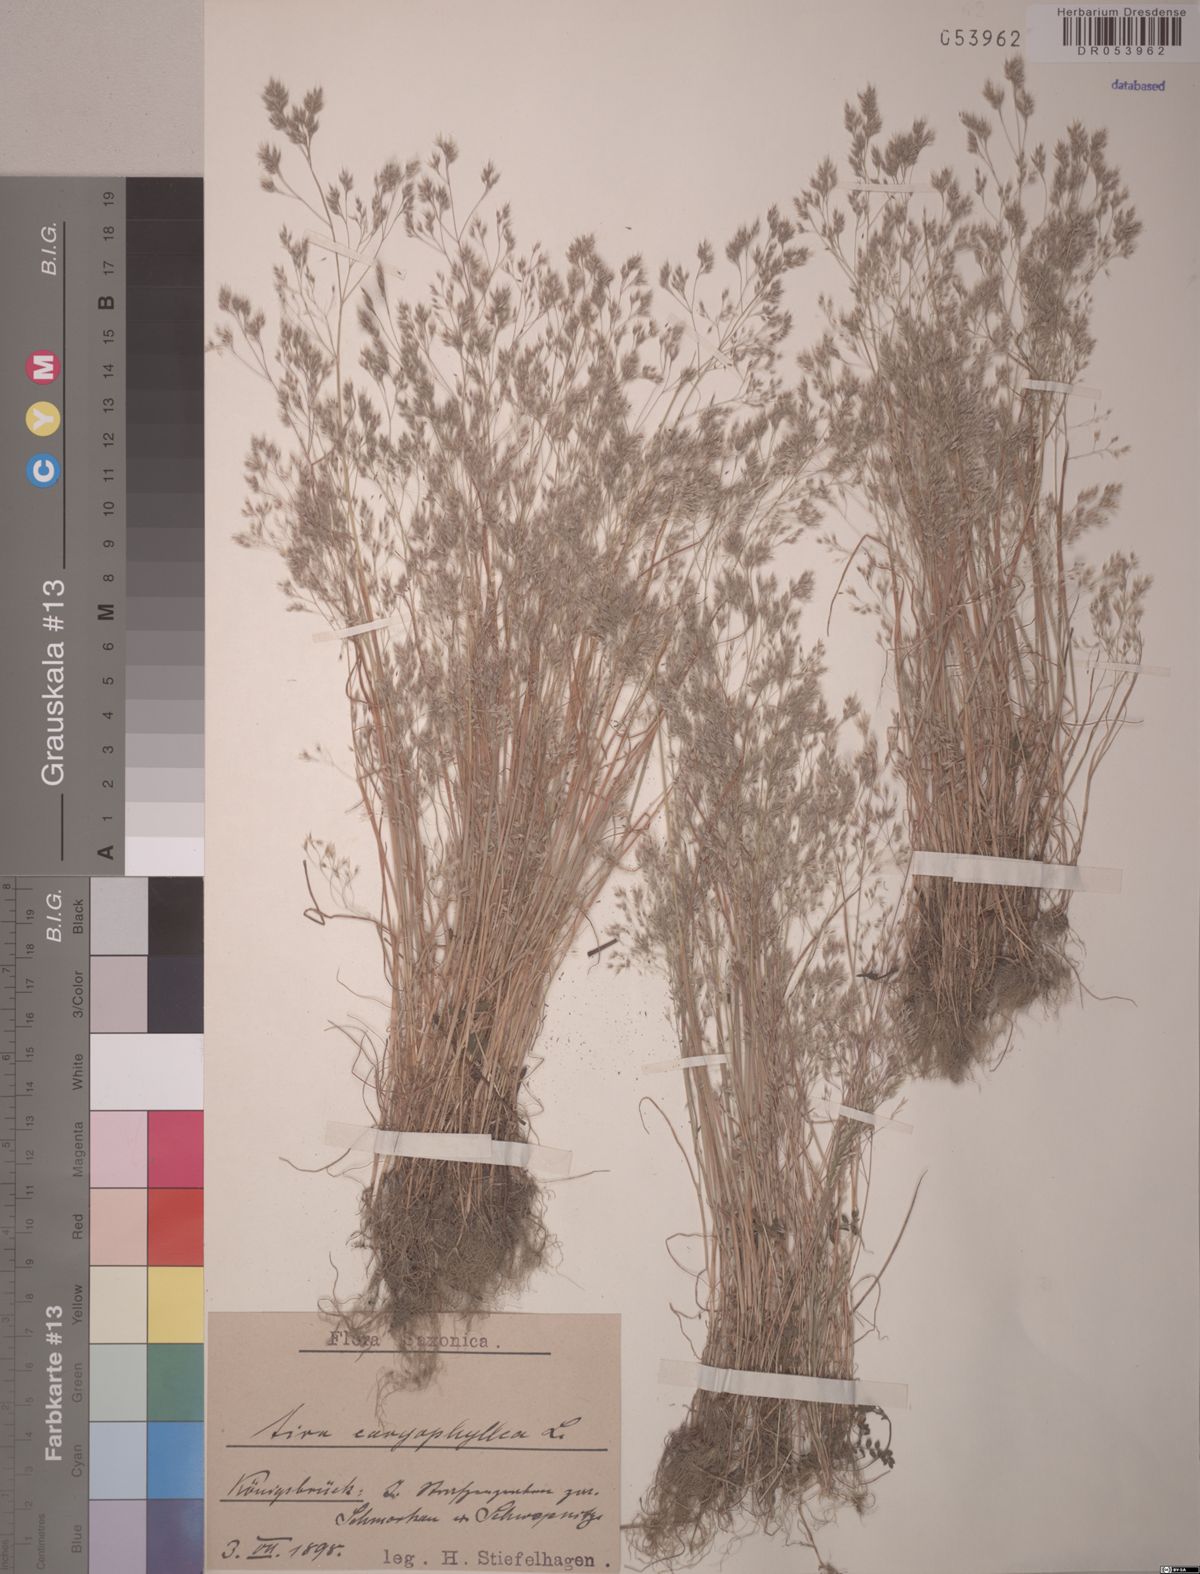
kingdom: Plantae
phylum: Tracheophyta
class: Liliopsida
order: Poales
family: Poaceae
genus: Aira
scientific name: Aira caryophyllea
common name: Silver hairgrass
